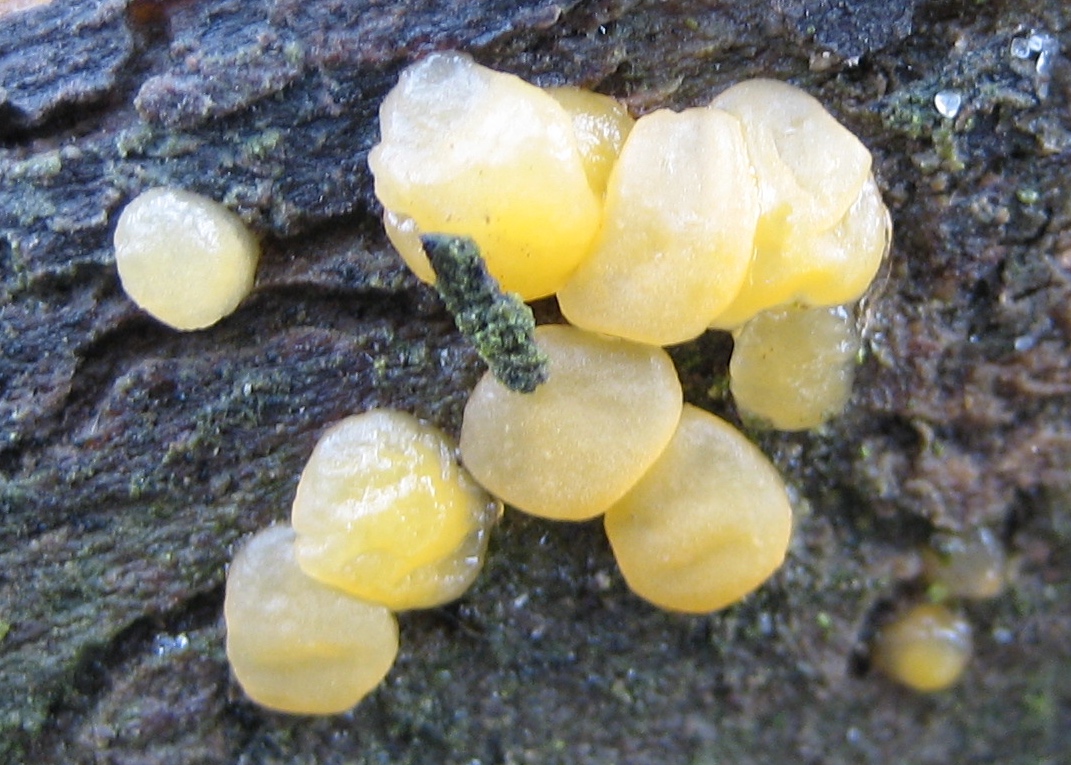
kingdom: Fungi
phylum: Basidiomycota
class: Dacrymycetes
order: Dacrymycetales
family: Dacrymycetaceae
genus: Dacrymyces
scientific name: Dacrymyces
